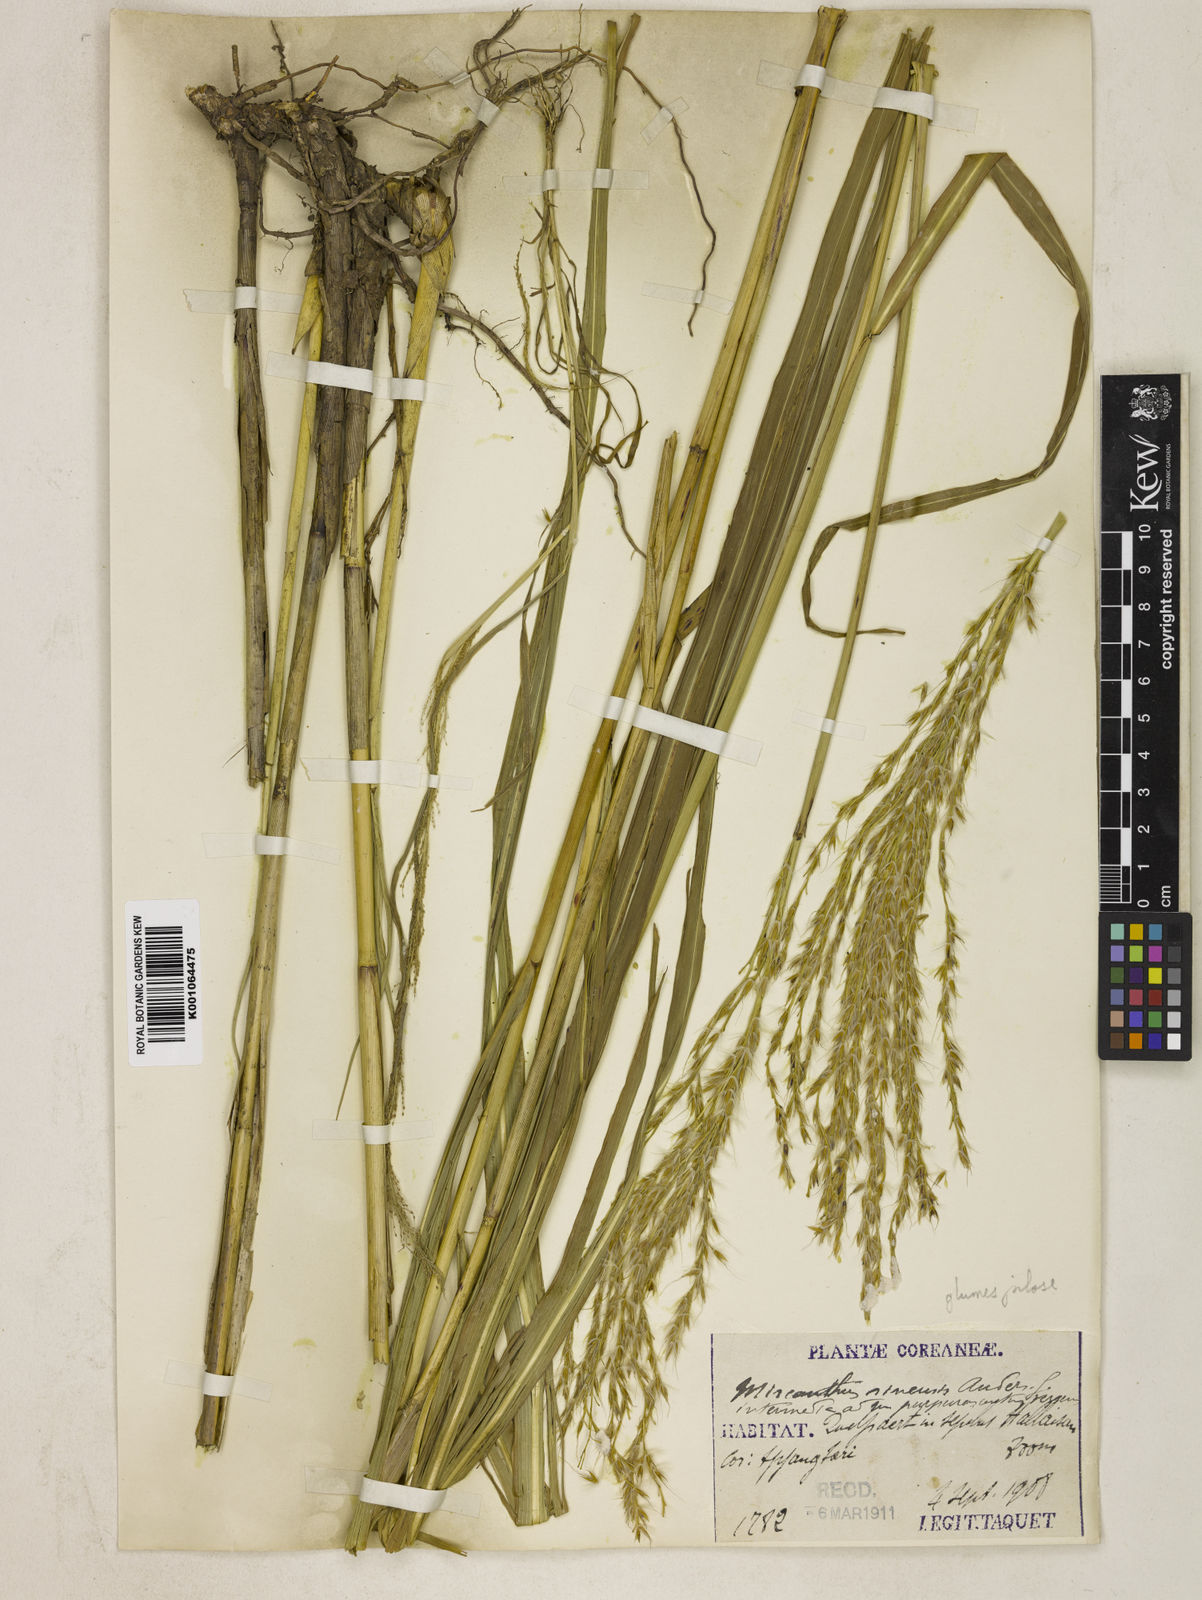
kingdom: Plantae
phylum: Tracheophyta
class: Liliopsida
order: Poales
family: Poaceae
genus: Miscanthus
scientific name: Miscanthus sinensis
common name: Chinese silvergrass
